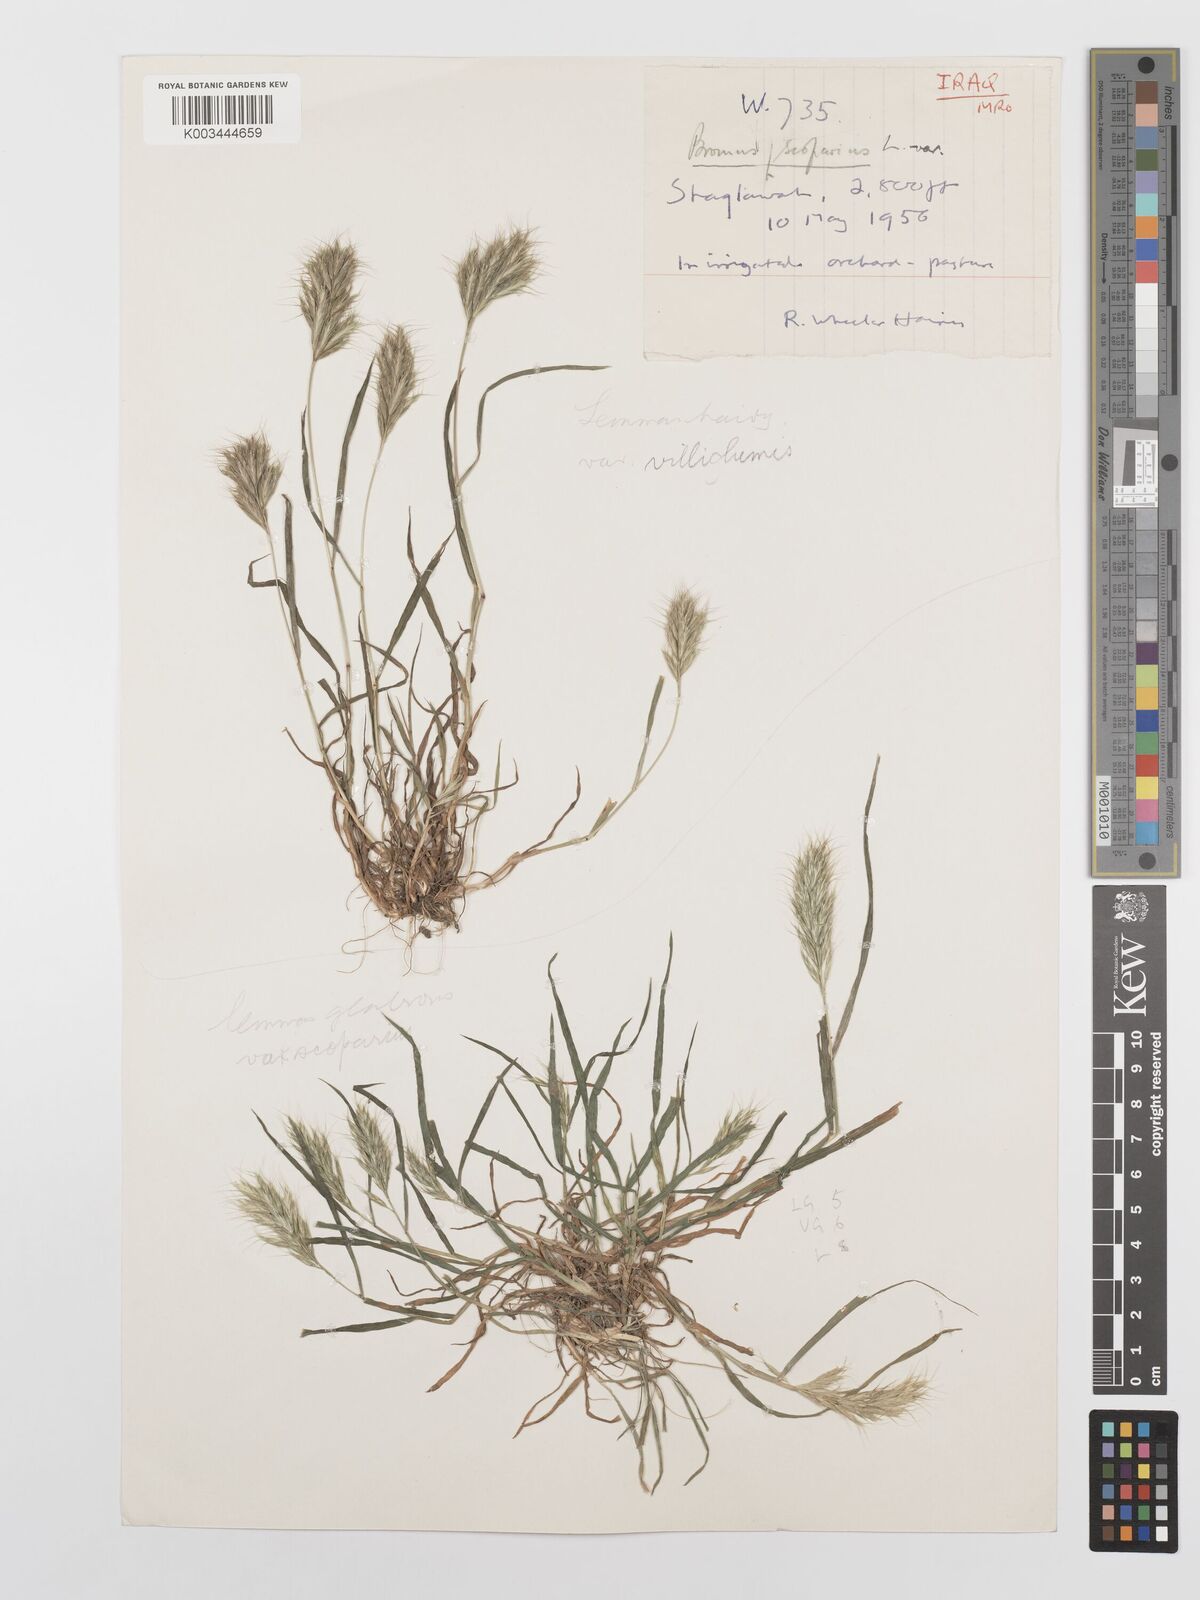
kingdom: Plantae
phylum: Tracheophyta
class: Liliopsida
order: Poales
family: Poaceae
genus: Bromus
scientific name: Bromus scoparius
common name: Broom brome
